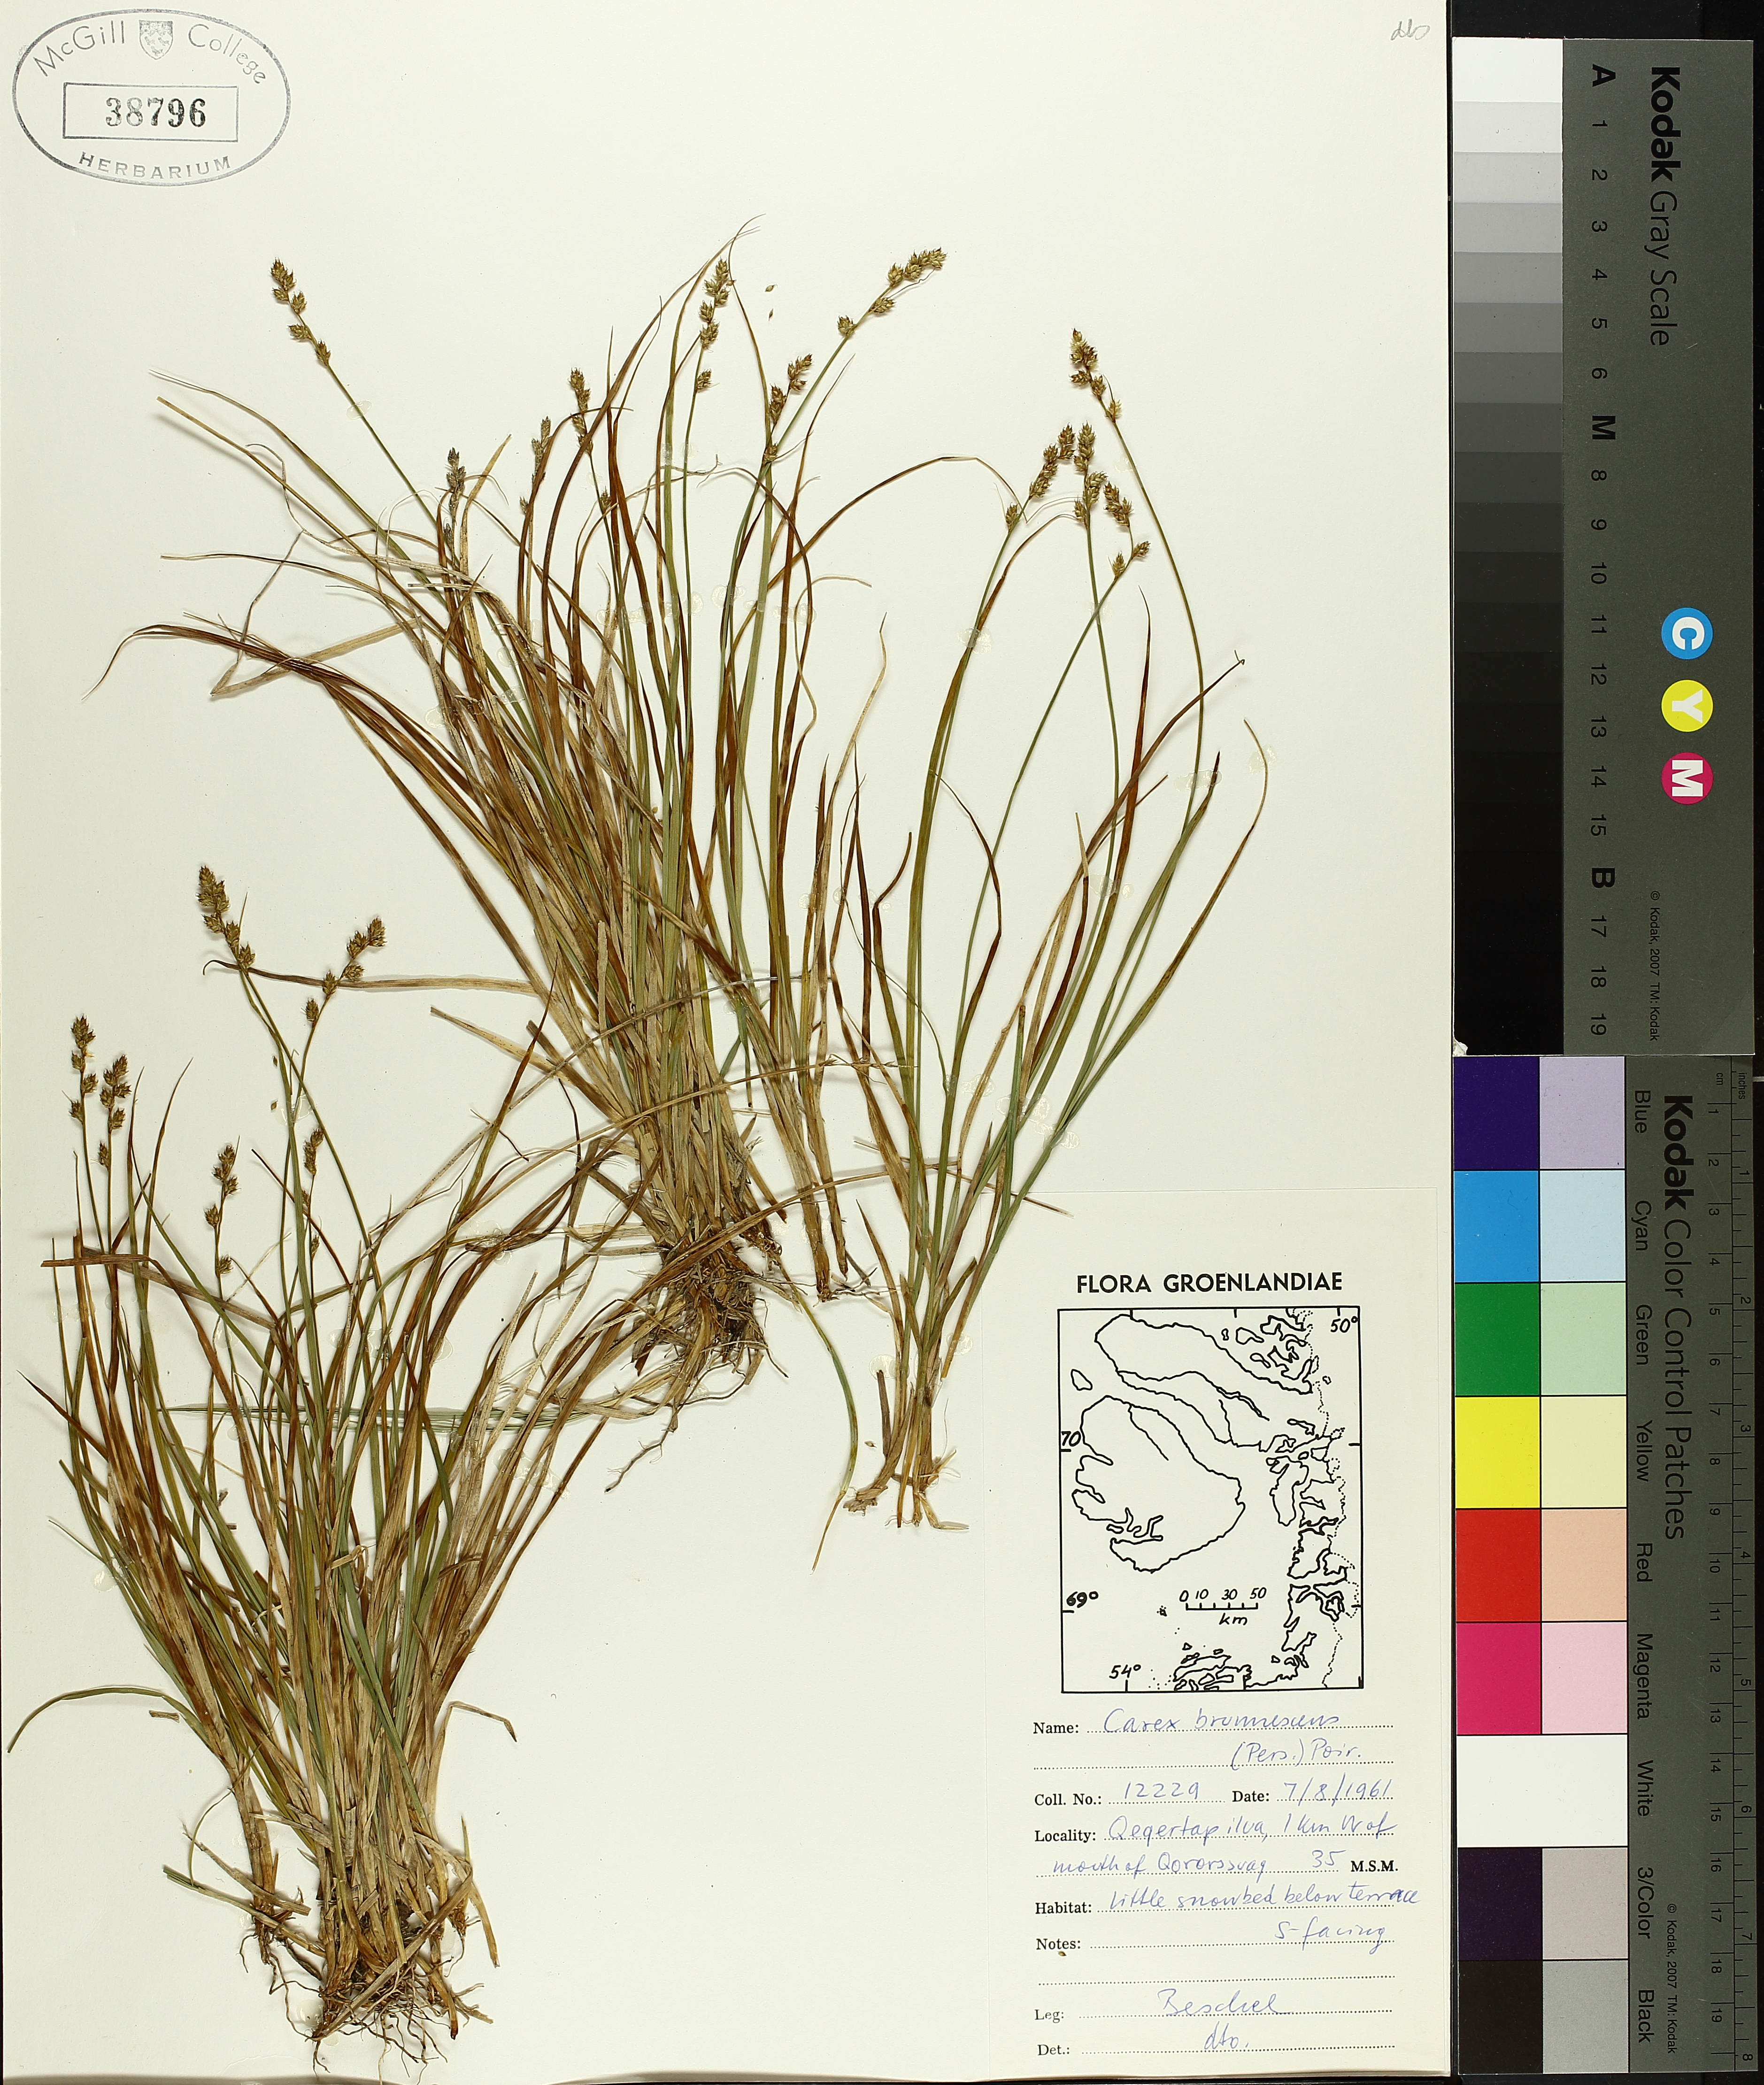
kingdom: Plantae
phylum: Tracheophyta
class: Liliopsida
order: Poales
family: Cyperaceae
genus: Carex
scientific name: Carex brunnescens
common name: Brown sedge
